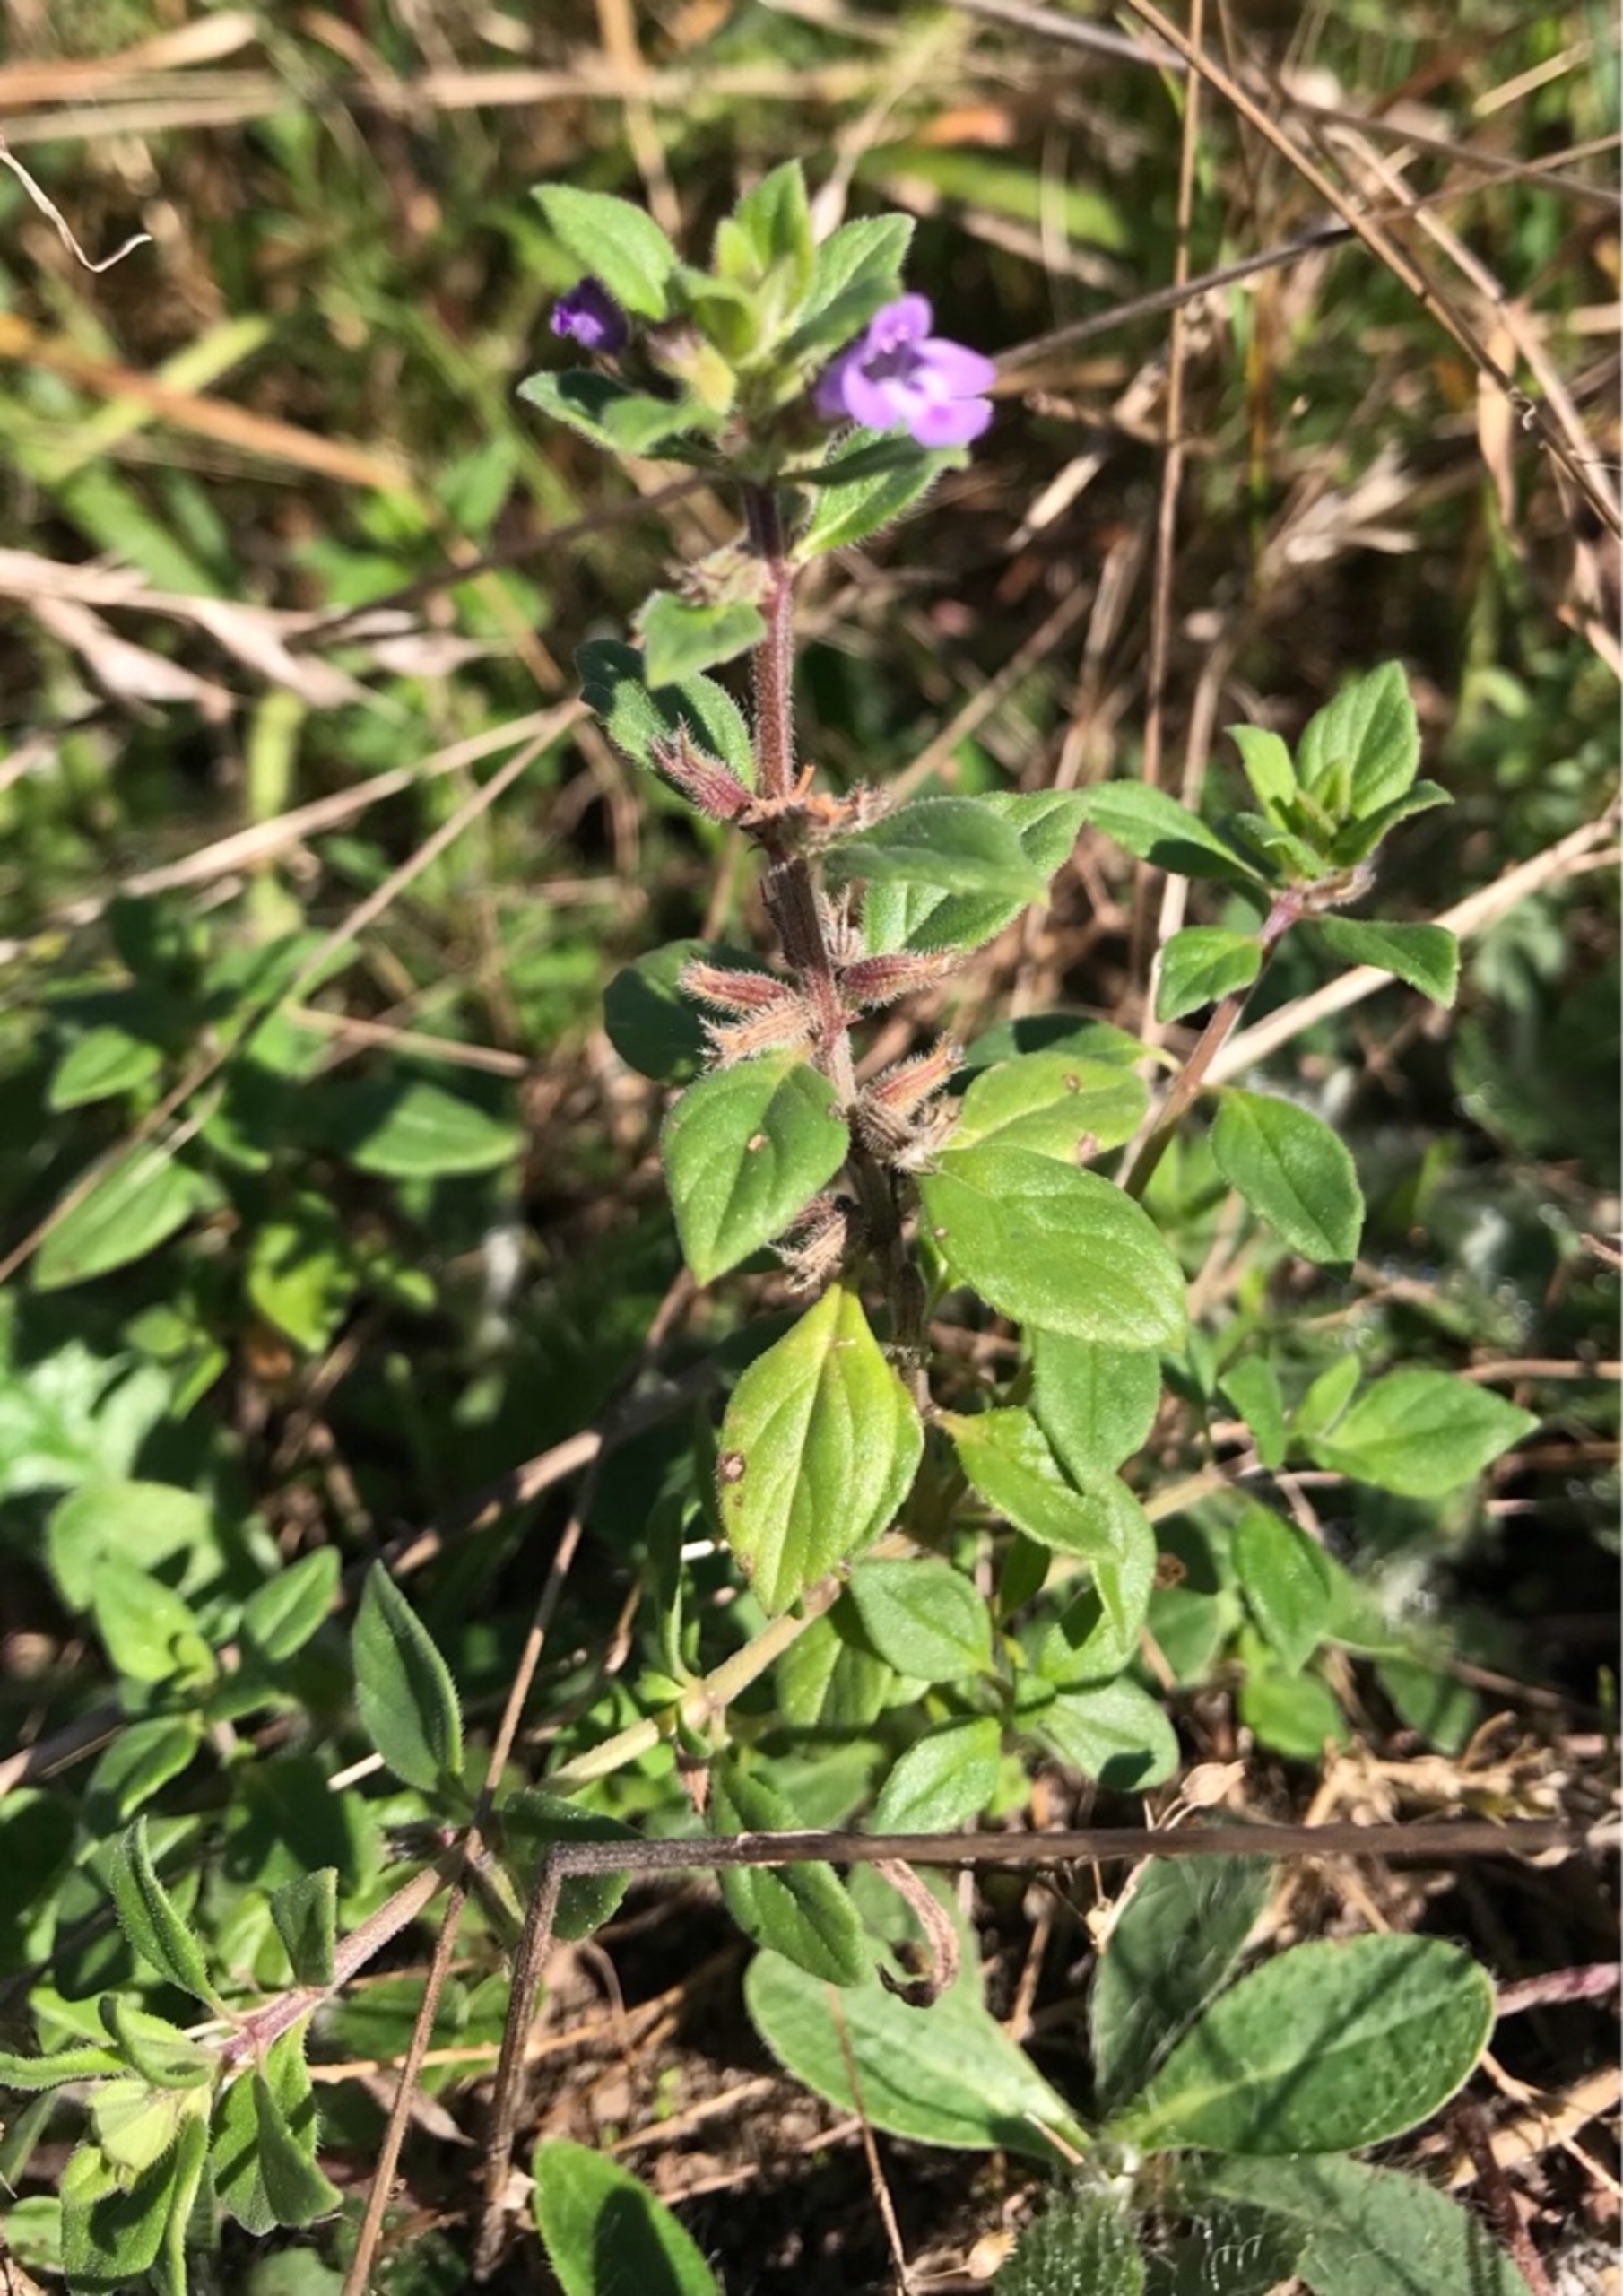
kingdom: Plantae
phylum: Tracheophyta
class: Magnoliopsida
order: Lamiales
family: Lamiaceae
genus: Clinopodium
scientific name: Clinopodium acinos
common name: Voldtimian
